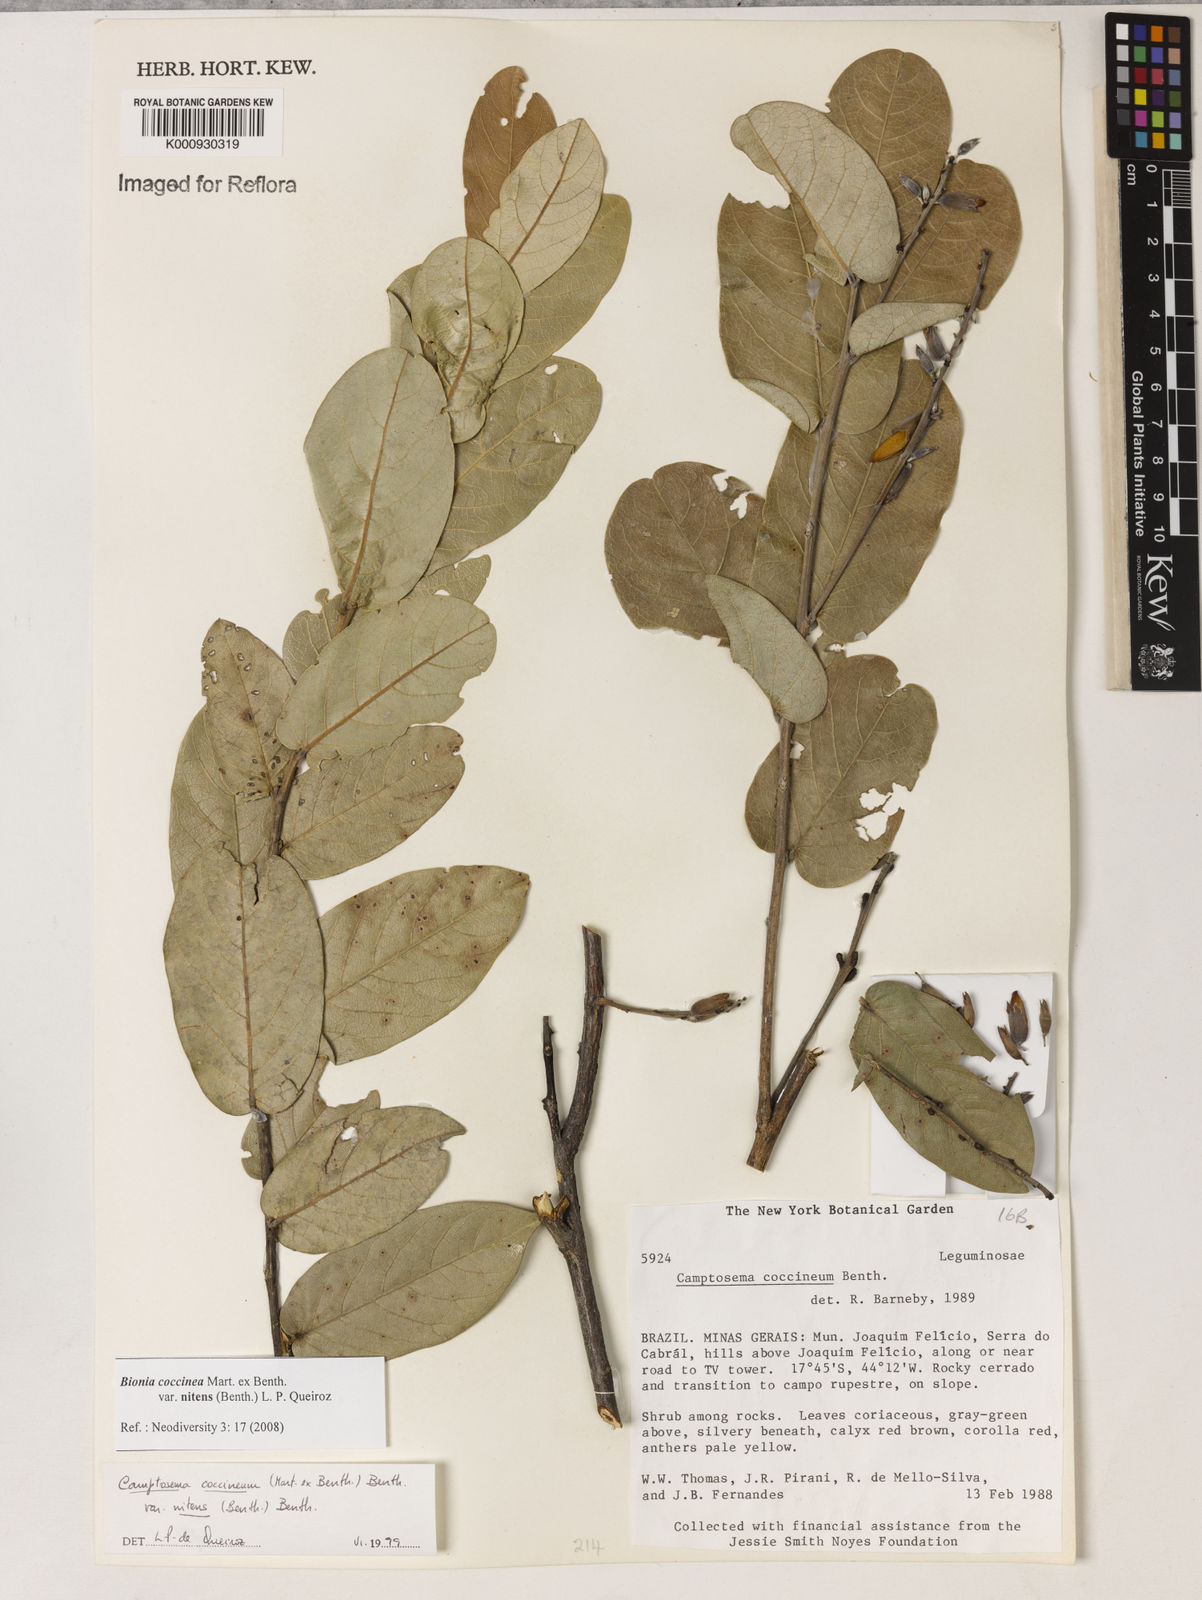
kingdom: Plantae
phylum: Tracheophyta
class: Magnoliopsida
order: Fabales
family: Fabaceae
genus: Camptosema
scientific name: Camptosema coccineum
